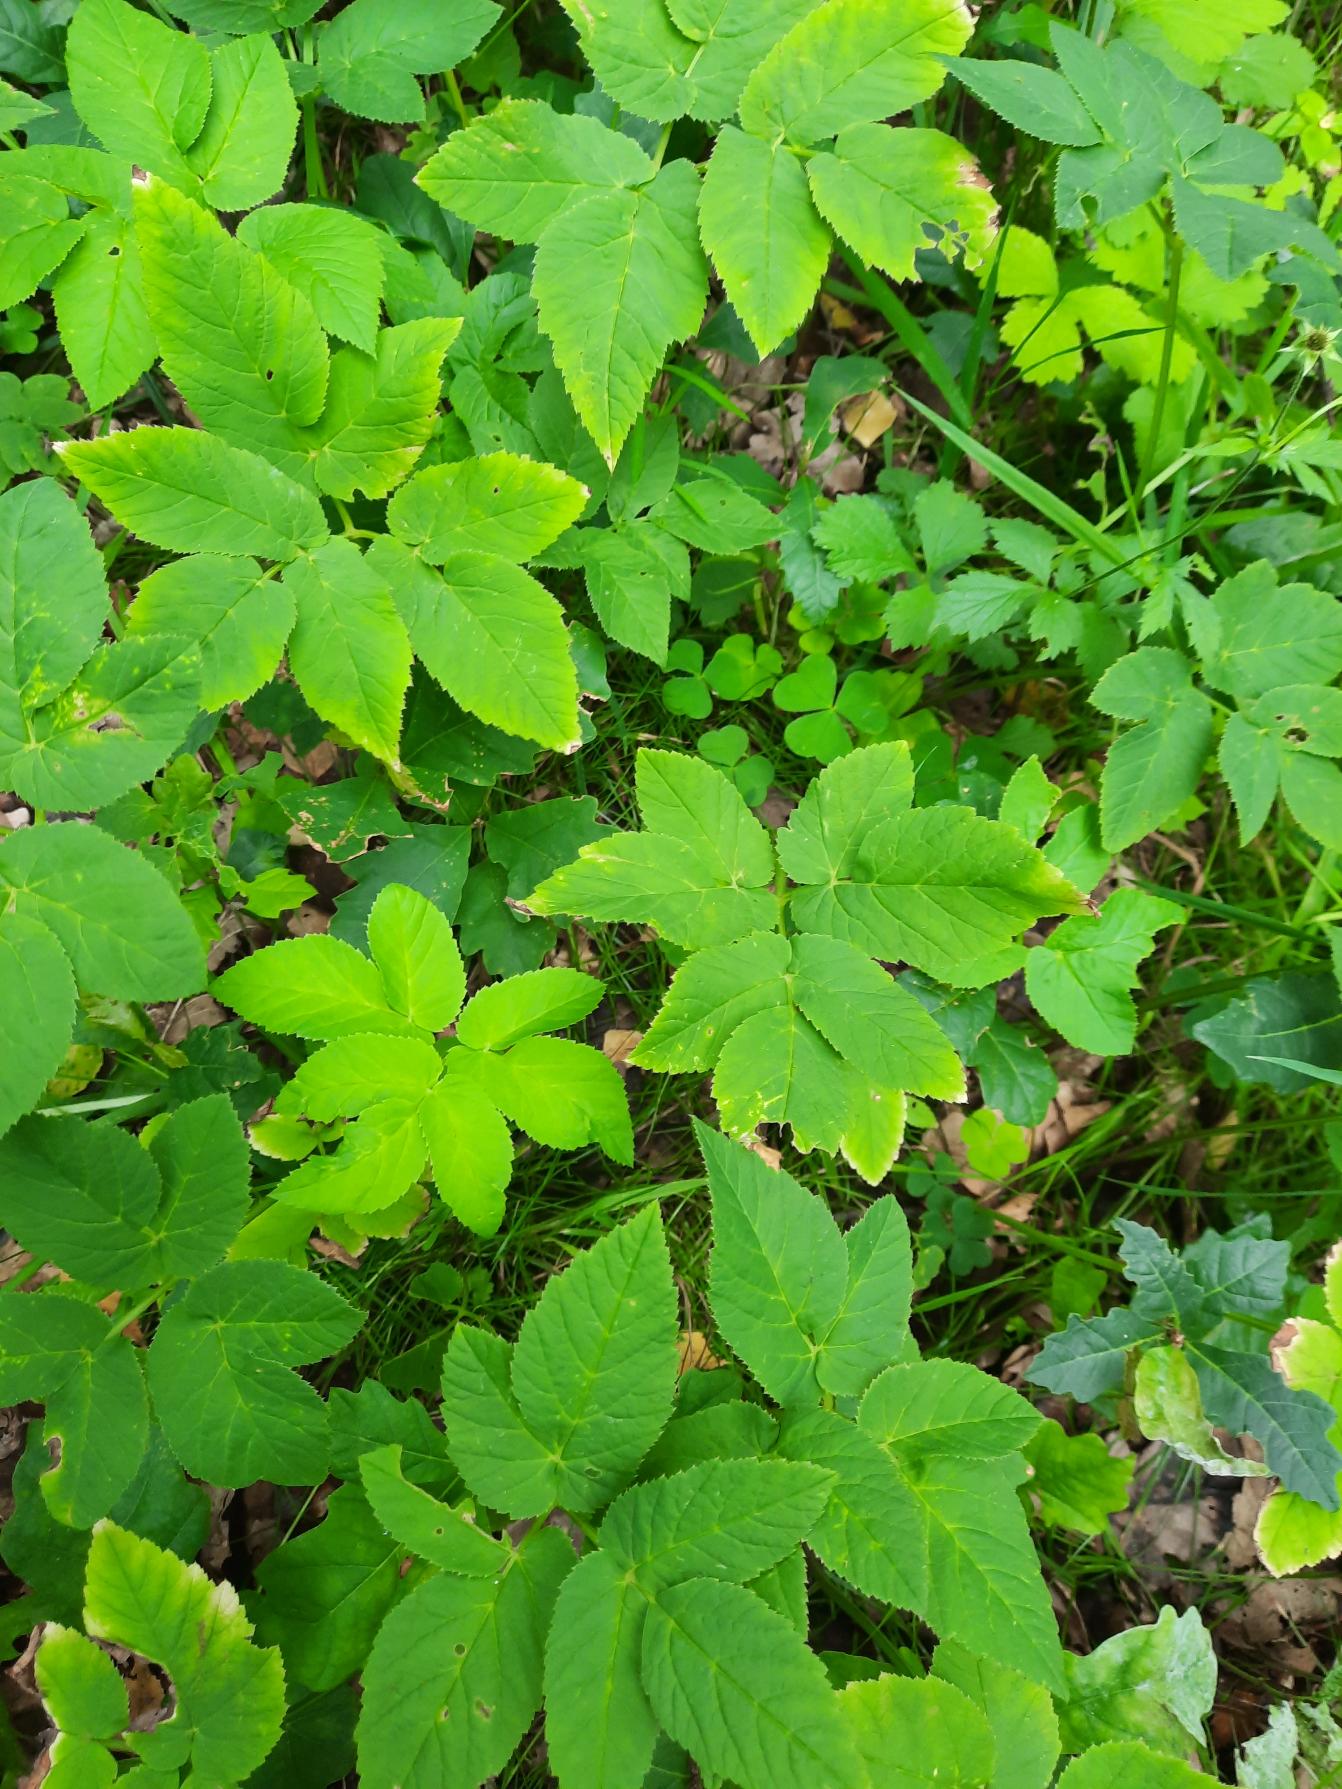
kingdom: Plantae
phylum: Tracheophyta
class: Magnoliopsida
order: Apiales
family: Apiaceae
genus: Aegopodium
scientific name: Aegopodium podagraria
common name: Skvalderkål
